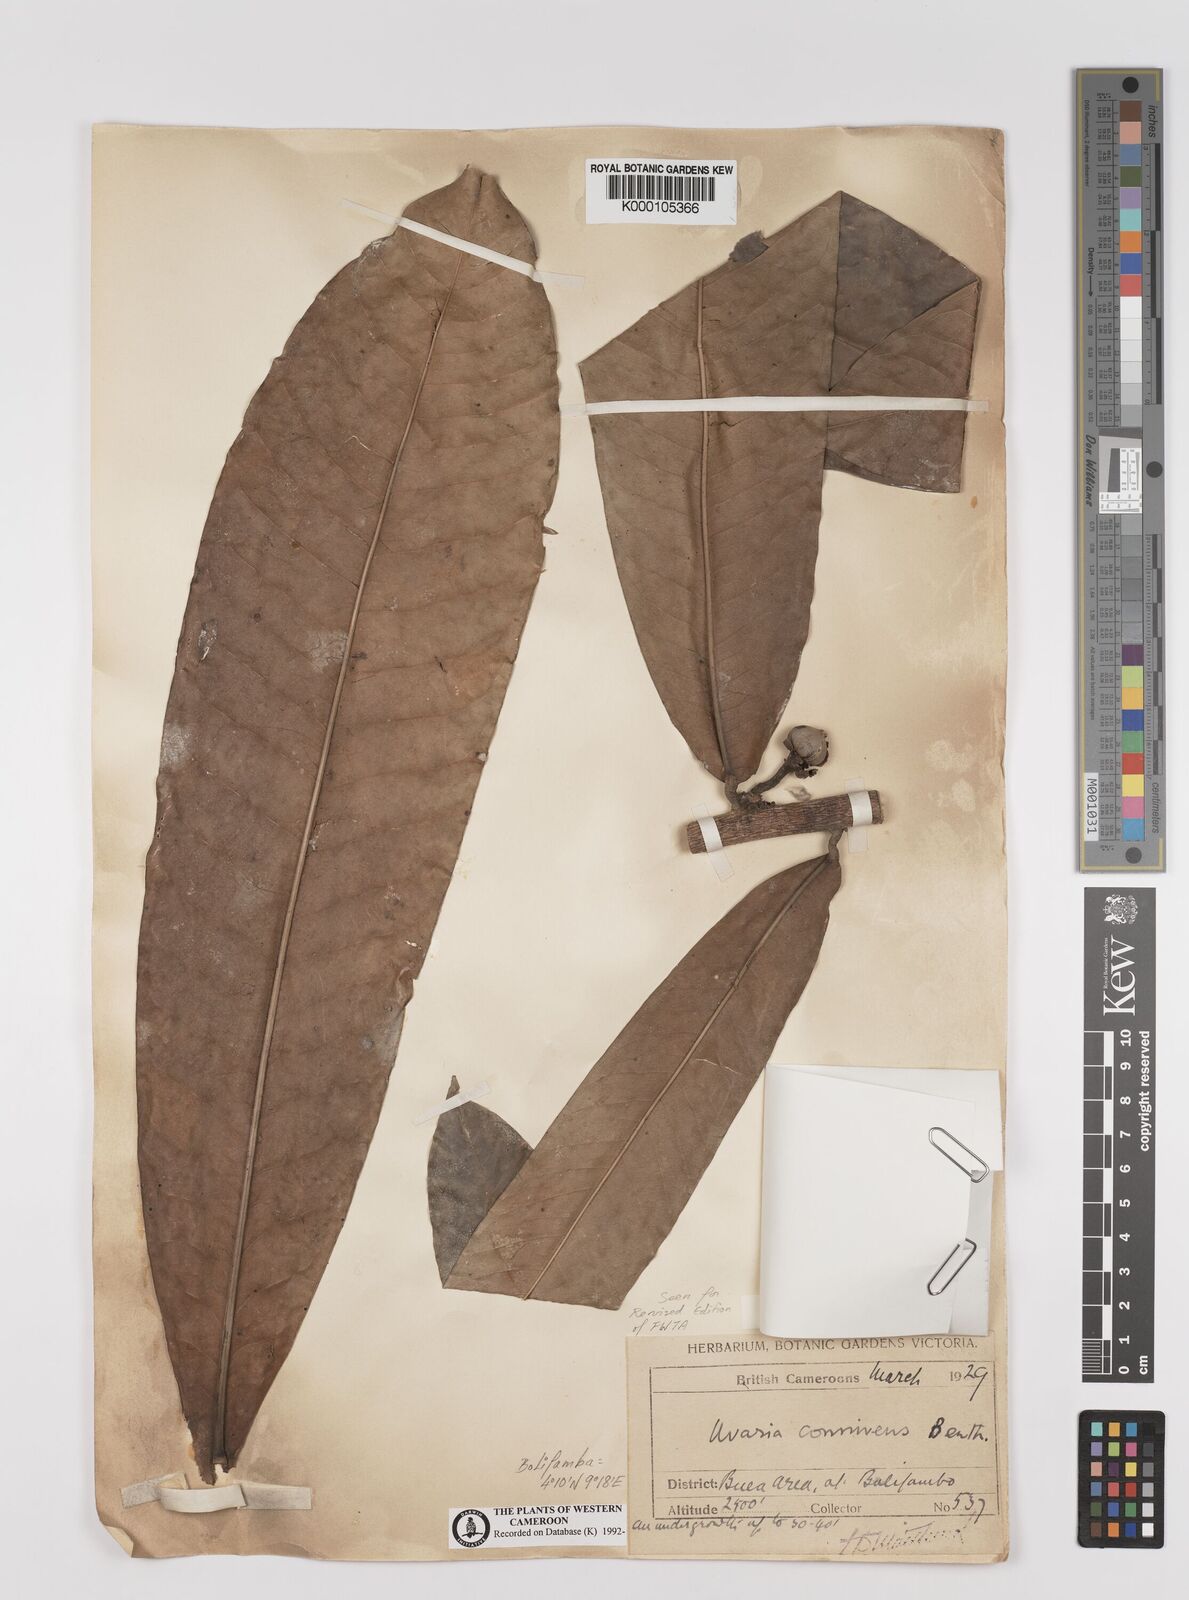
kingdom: Plantae
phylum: Tracheophyta
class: Magnoliopsida
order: Magnoliales
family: Annonaceae
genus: Uvariodendron
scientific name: Uvariodendron connivens
